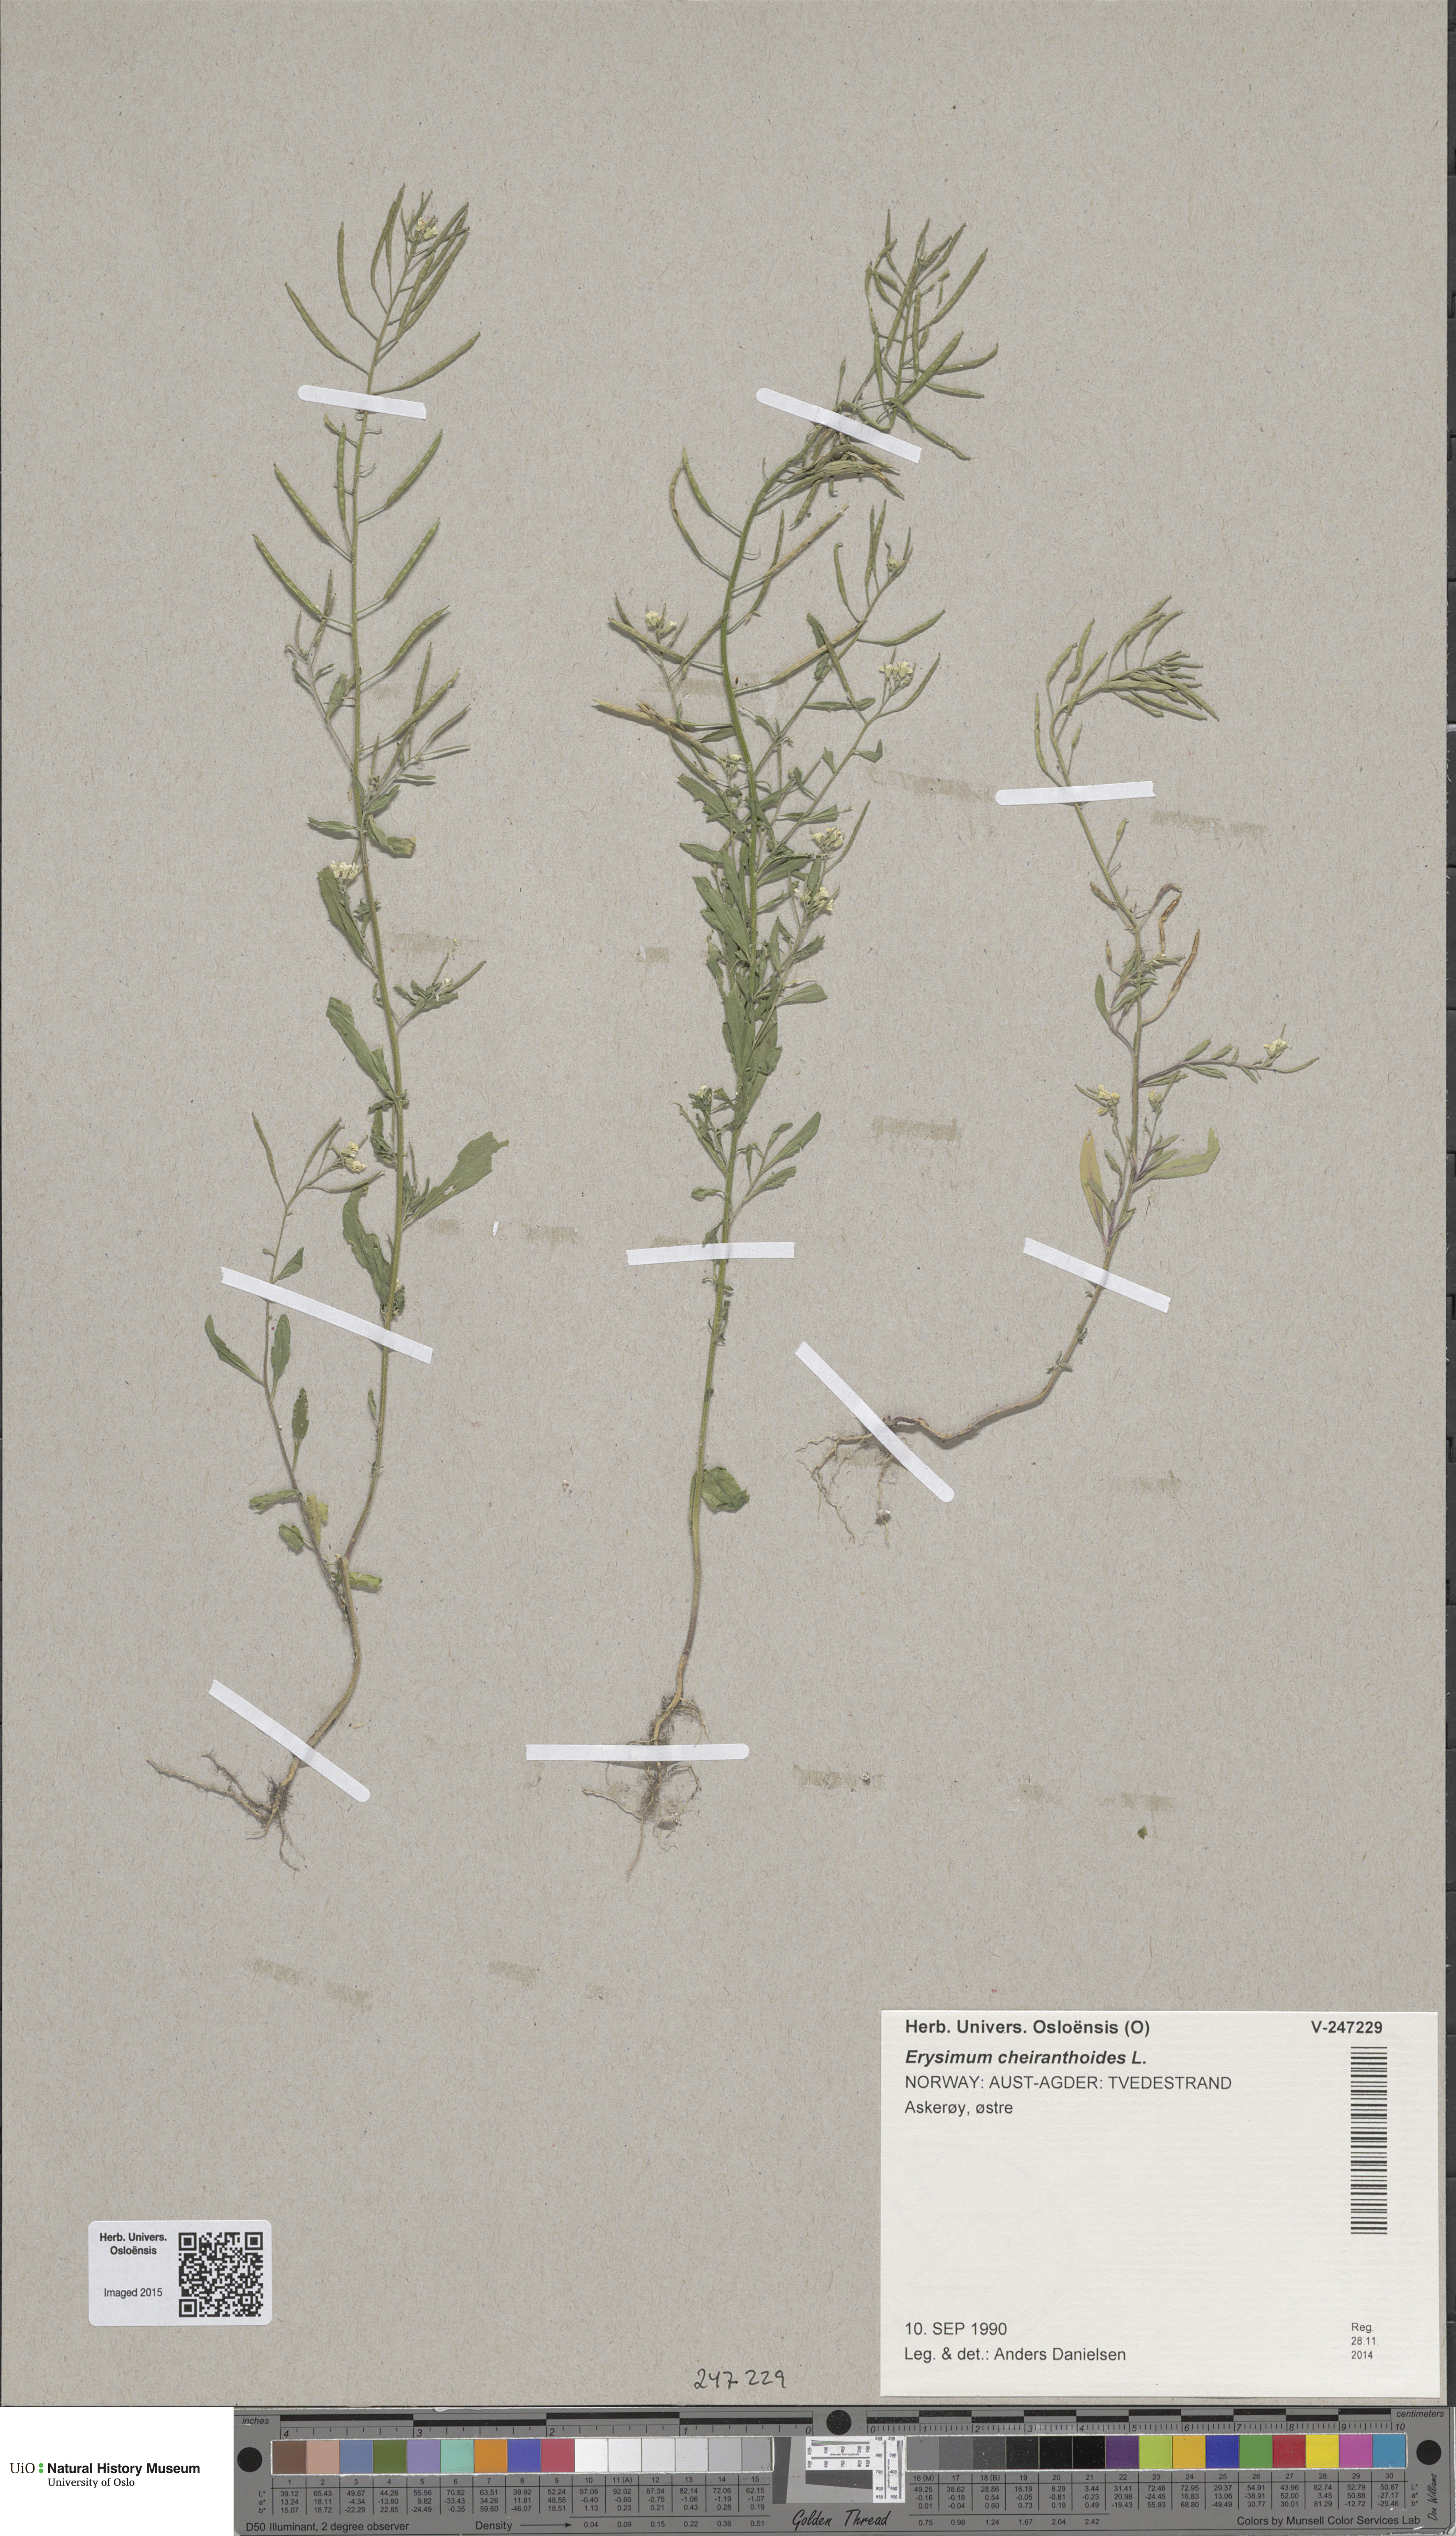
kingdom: Plantae
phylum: Tracheophyta
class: Magnoliopsida
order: Brassicales
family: Brassicaceae
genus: Erysimum
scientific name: Erysimum cheiranthoides
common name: Treacle mustard
